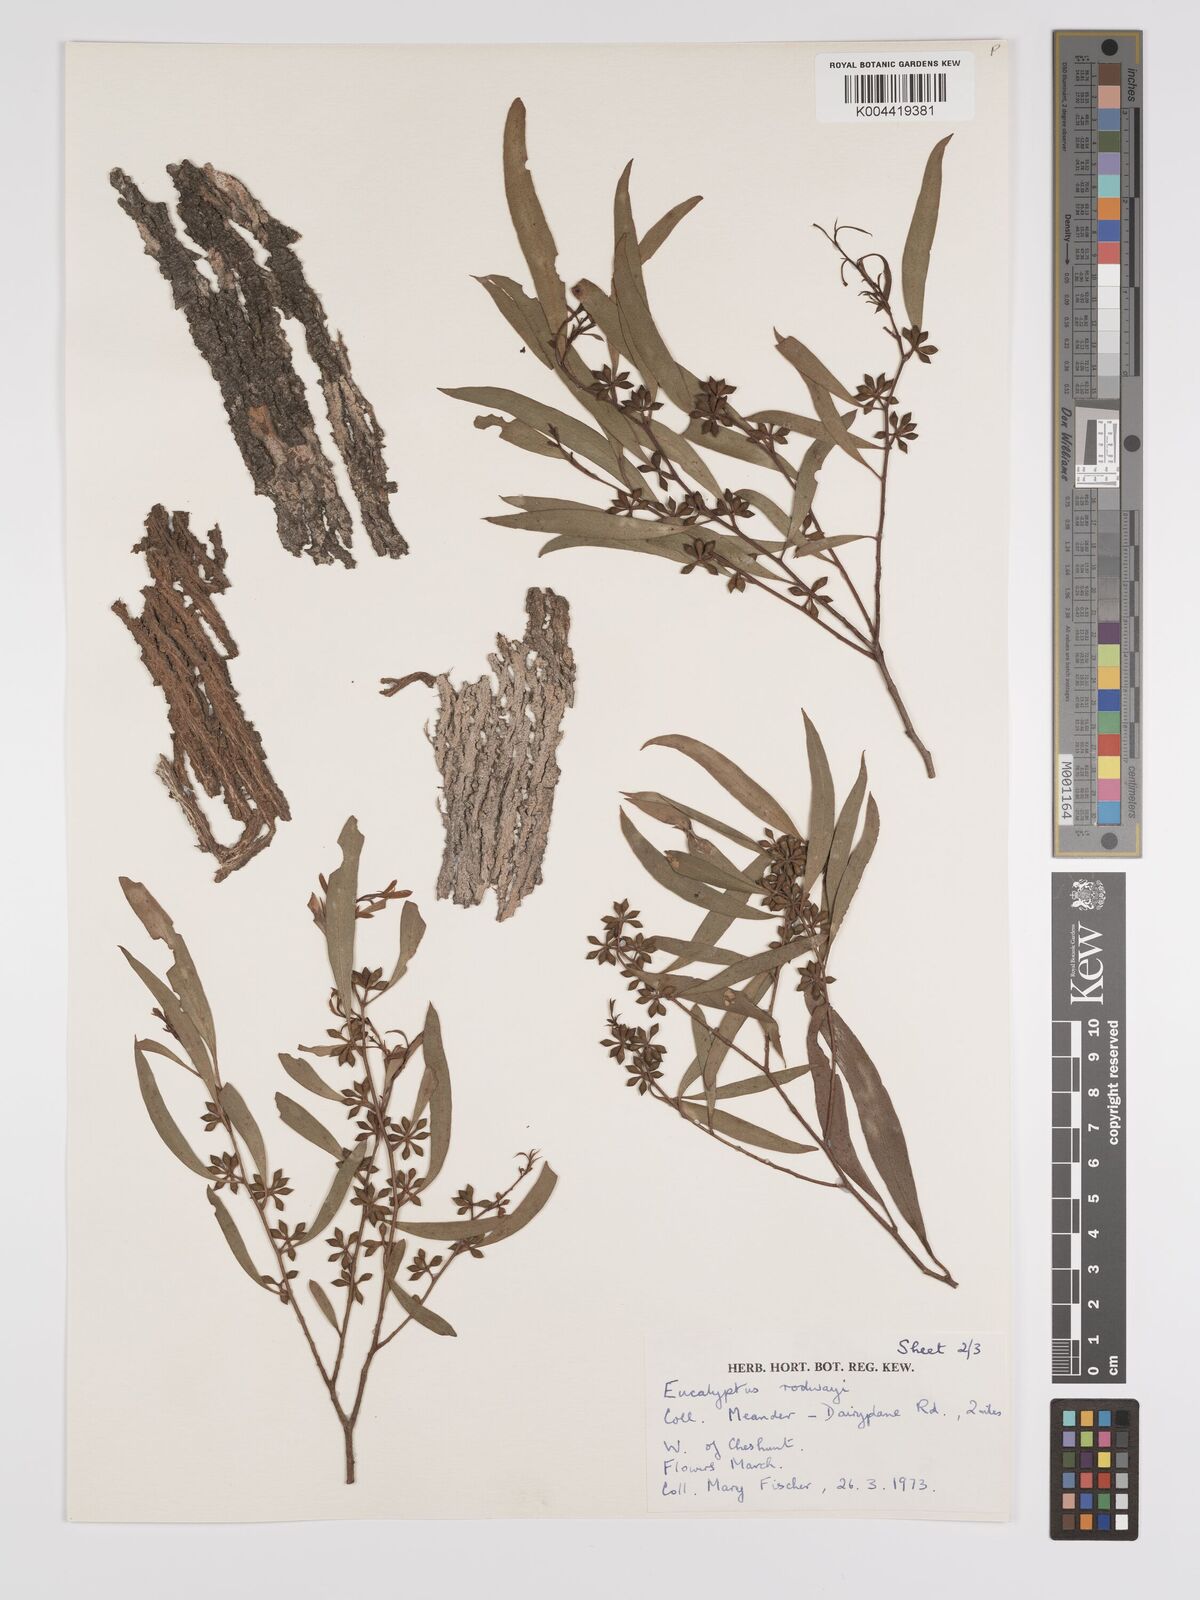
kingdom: Plantae
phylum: Tracheophyta
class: Magnoliopsida
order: Myrtales
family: Myrtaceae
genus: Eucalyptus
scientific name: Eucalyptus rodwayi
